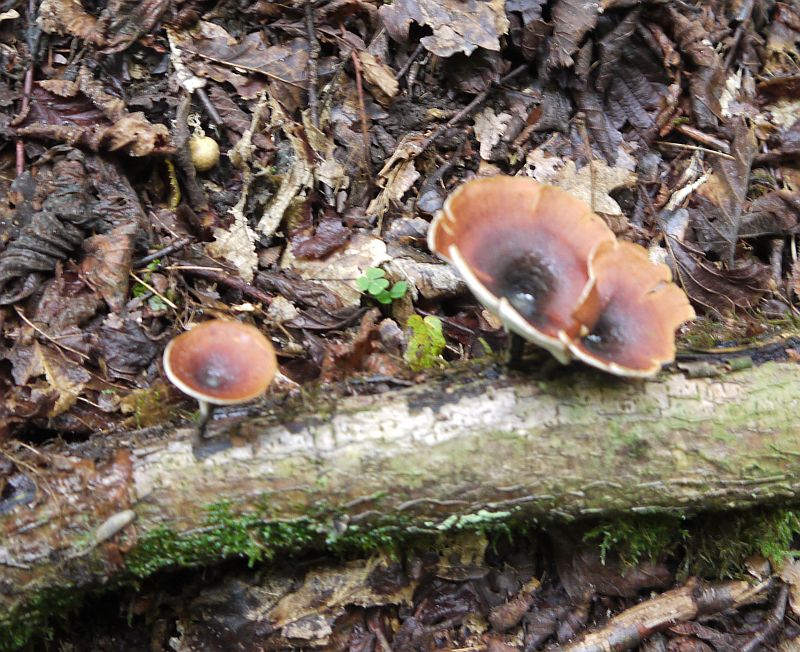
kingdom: Fungi
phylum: Basidiomycota
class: Agaricomycetes
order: Polyporales
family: Polyporaceae
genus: Picipes
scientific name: Picipes tubaeformis
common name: trompet-stilkporesvamp
